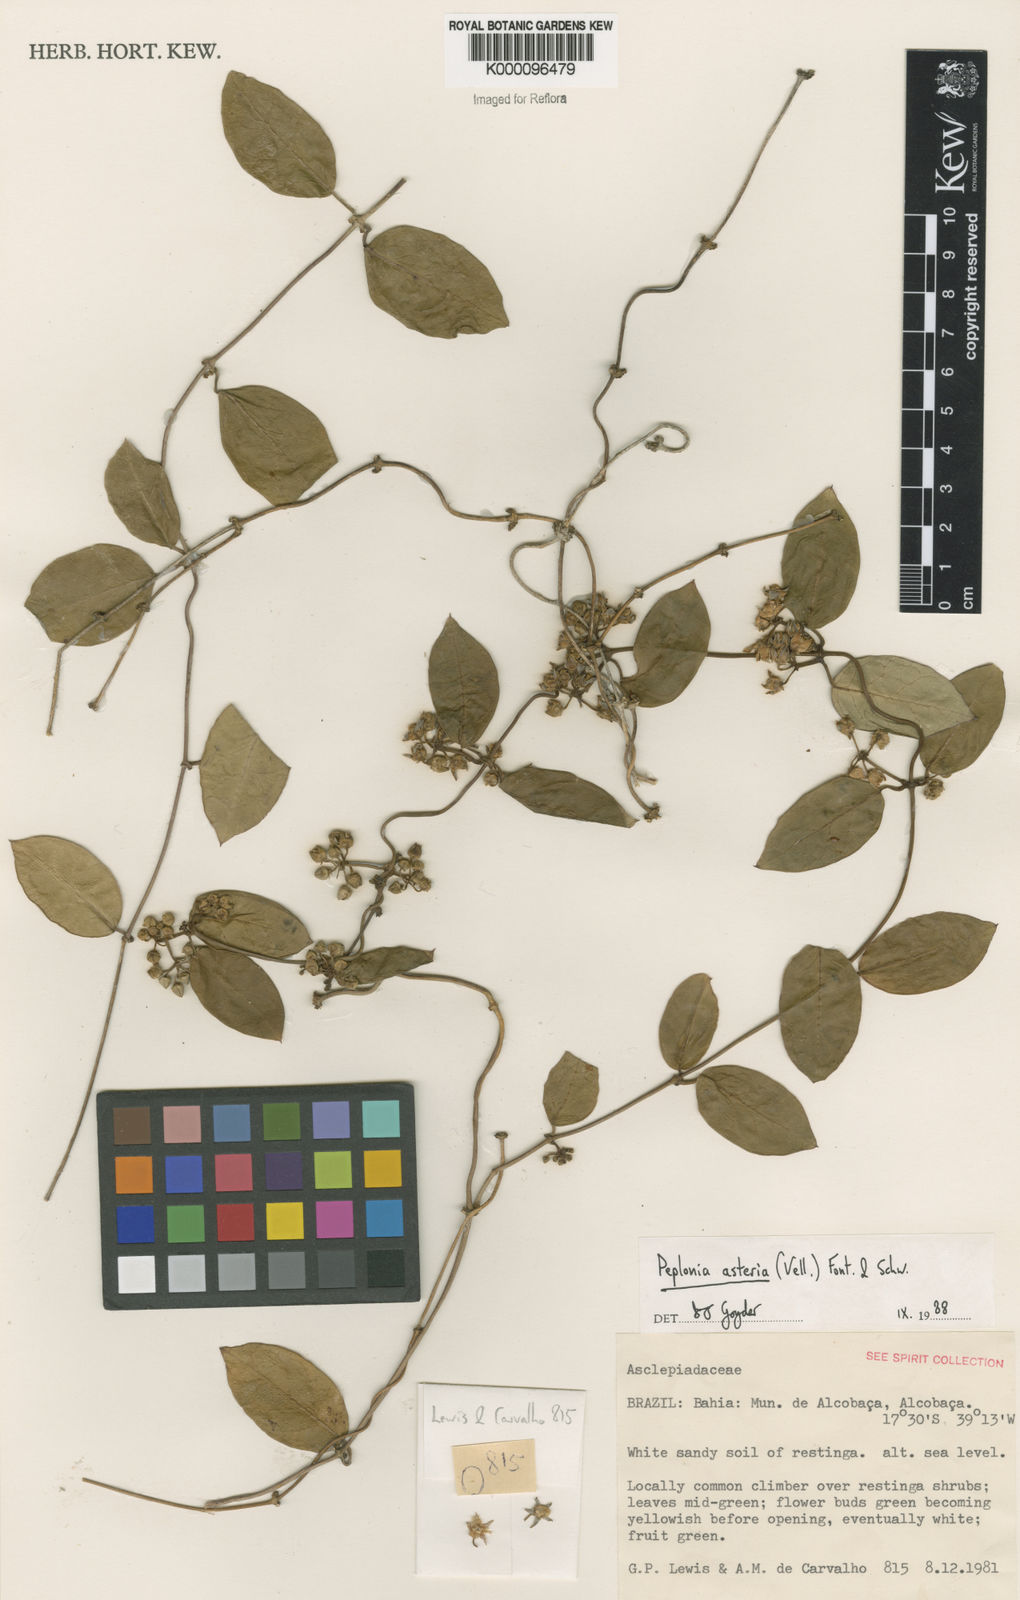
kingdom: Plantae
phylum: Tracheophyta
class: Magnoliopsida
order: Gentianales
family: Apocynaceae
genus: Peplonia
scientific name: Peplonia asteria
